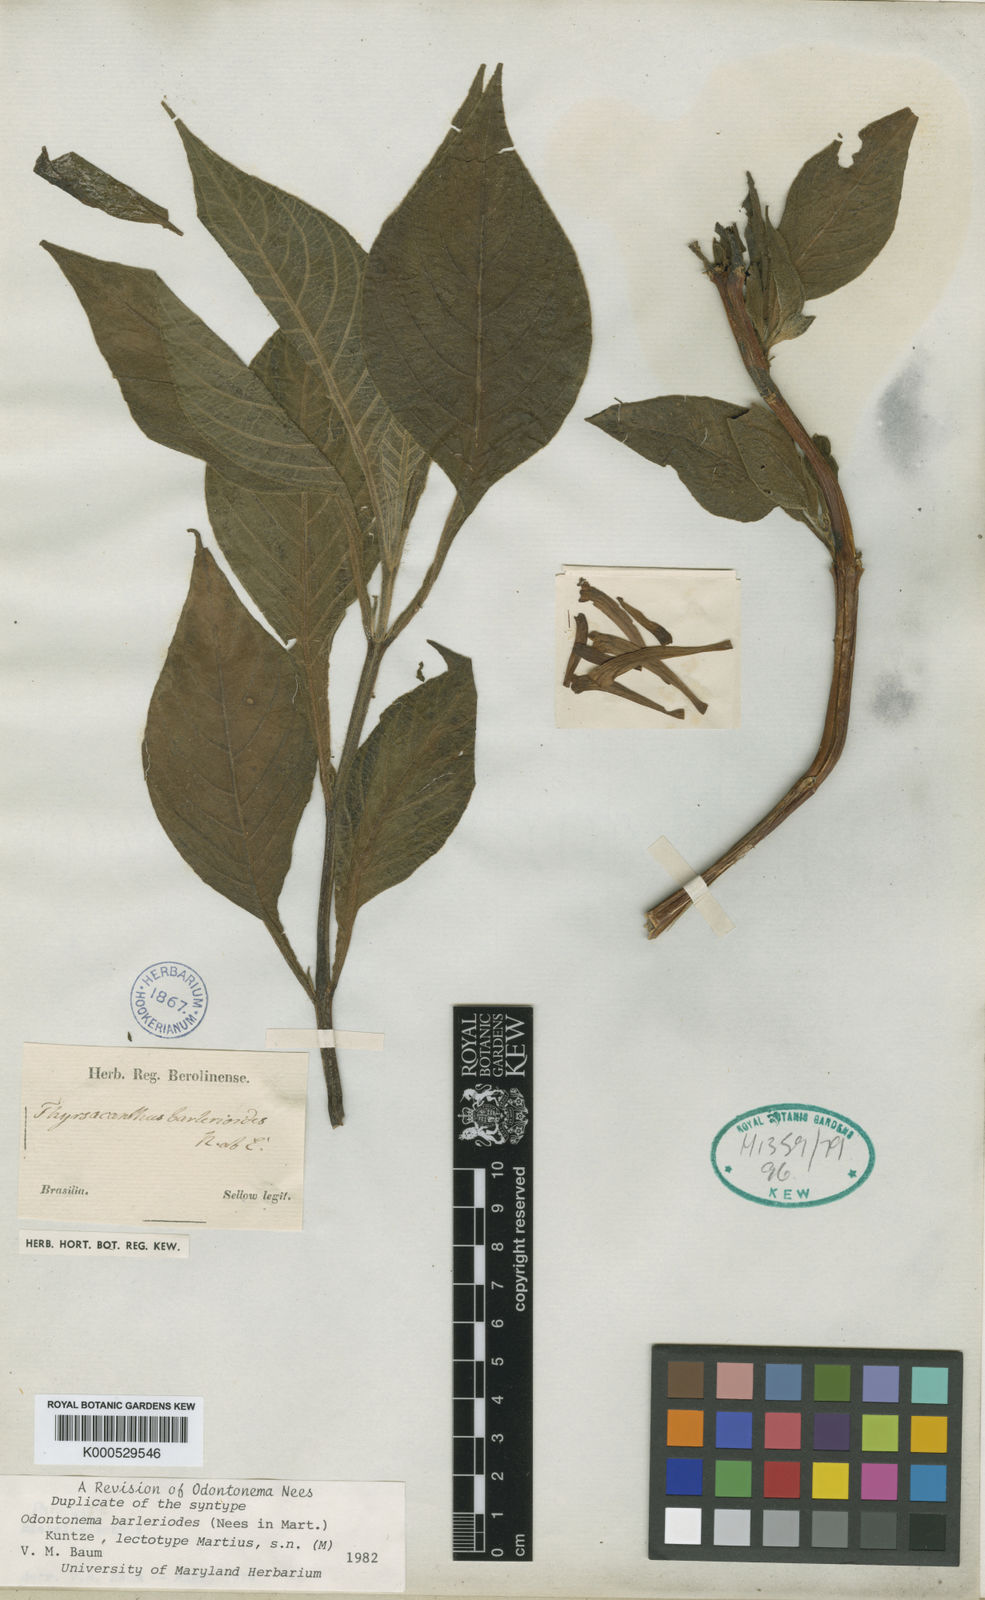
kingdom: Plantae
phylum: Tracheophyta
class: Magnoliopsida
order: Lamiales
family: Acanthaceae
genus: Odontonema
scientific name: Odontonema
